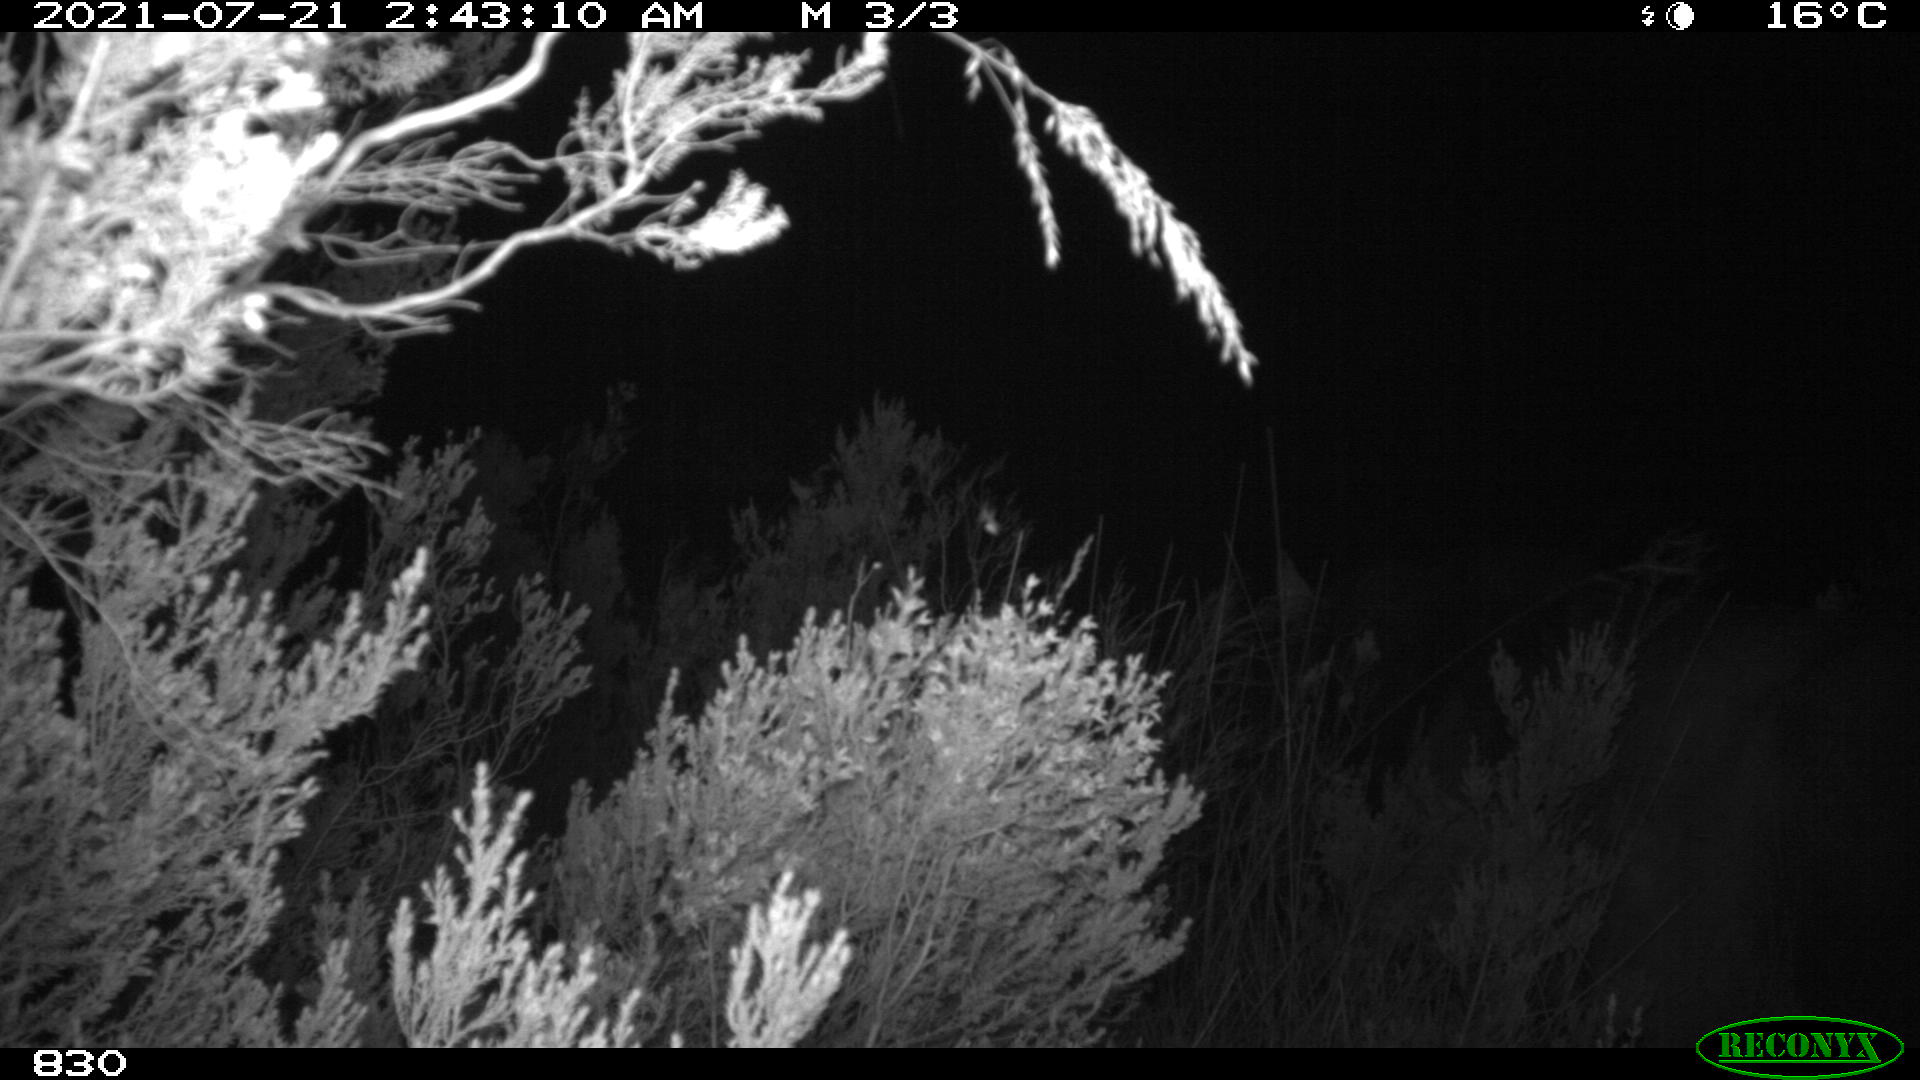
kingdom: Animalia
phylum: Chordata
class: Mammalia
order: Perissodactyla
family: Equidae
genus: Equus
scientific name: Equus caballus
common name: Horse
